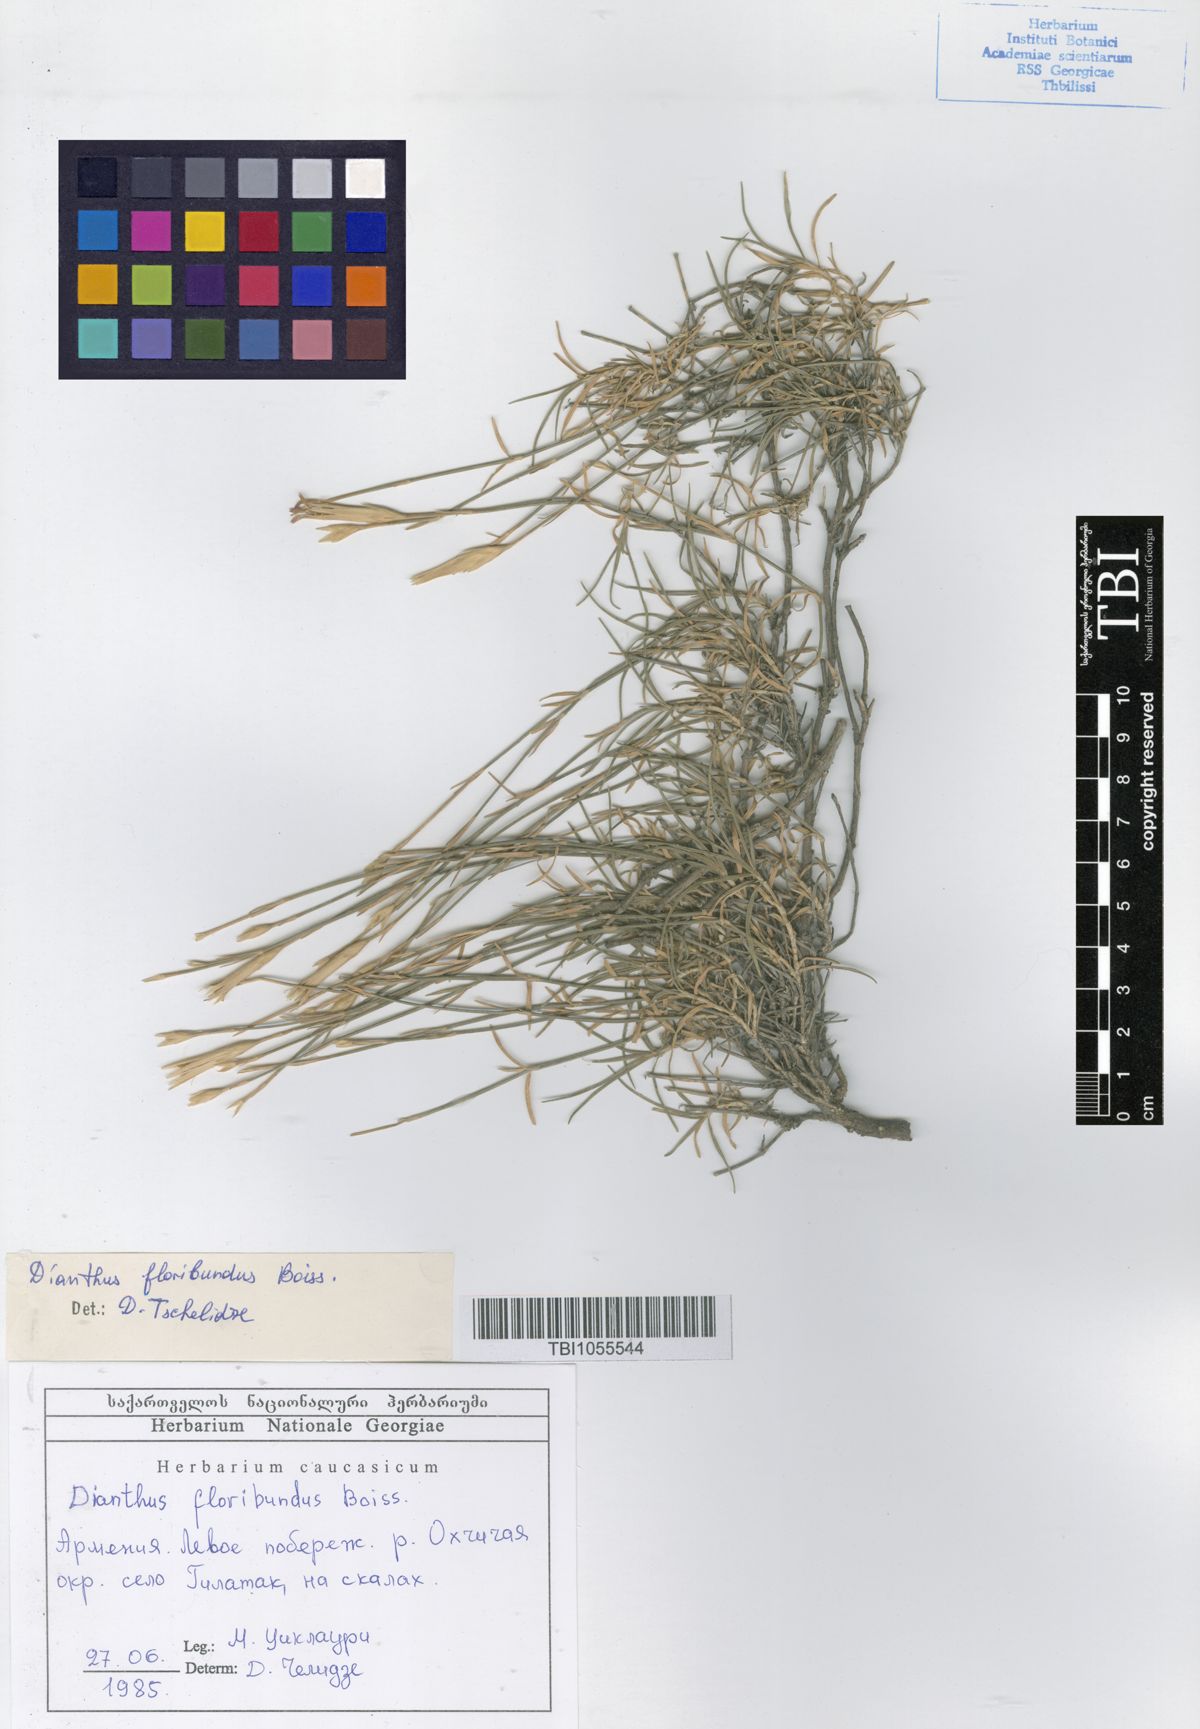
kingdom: Plantae
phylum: Tracheophyta
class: Magnoliopsida
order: Caryophyllales
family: Caryophyllaceae
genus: Dianthus
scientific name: Dianthus floribundus
